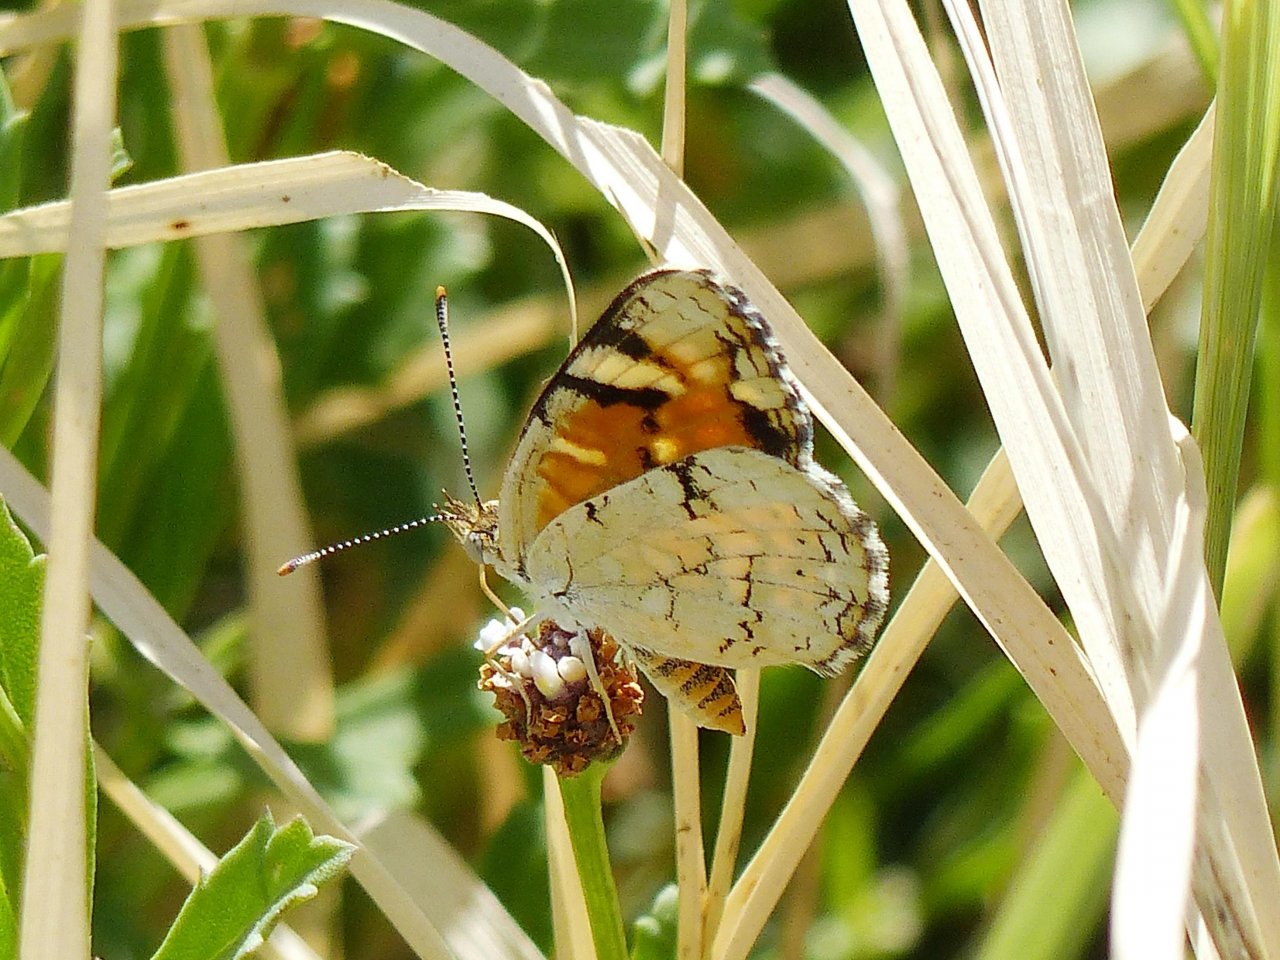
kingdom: Animalia
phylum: Arthropoda
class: Insecta
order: Lepidoptera
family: Nymphalidae
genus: Phyciodes
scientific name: Phyciodes picta
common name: Painted Crescent
